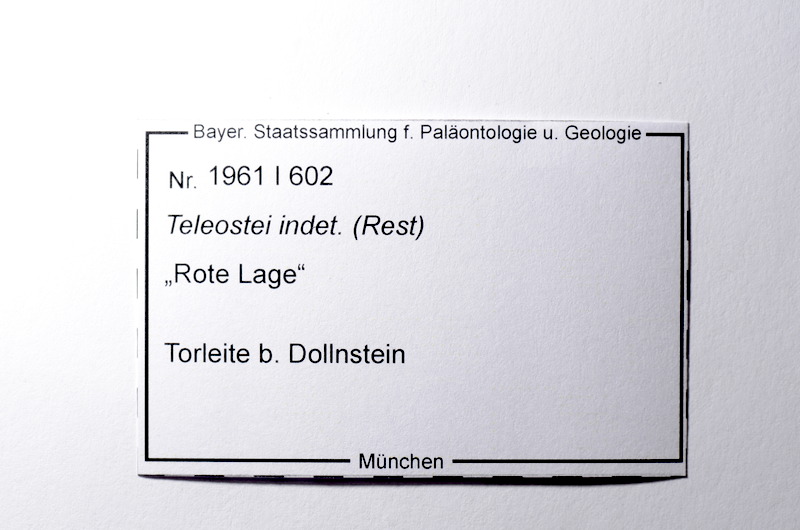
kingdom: Animalia
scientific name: Animalia
